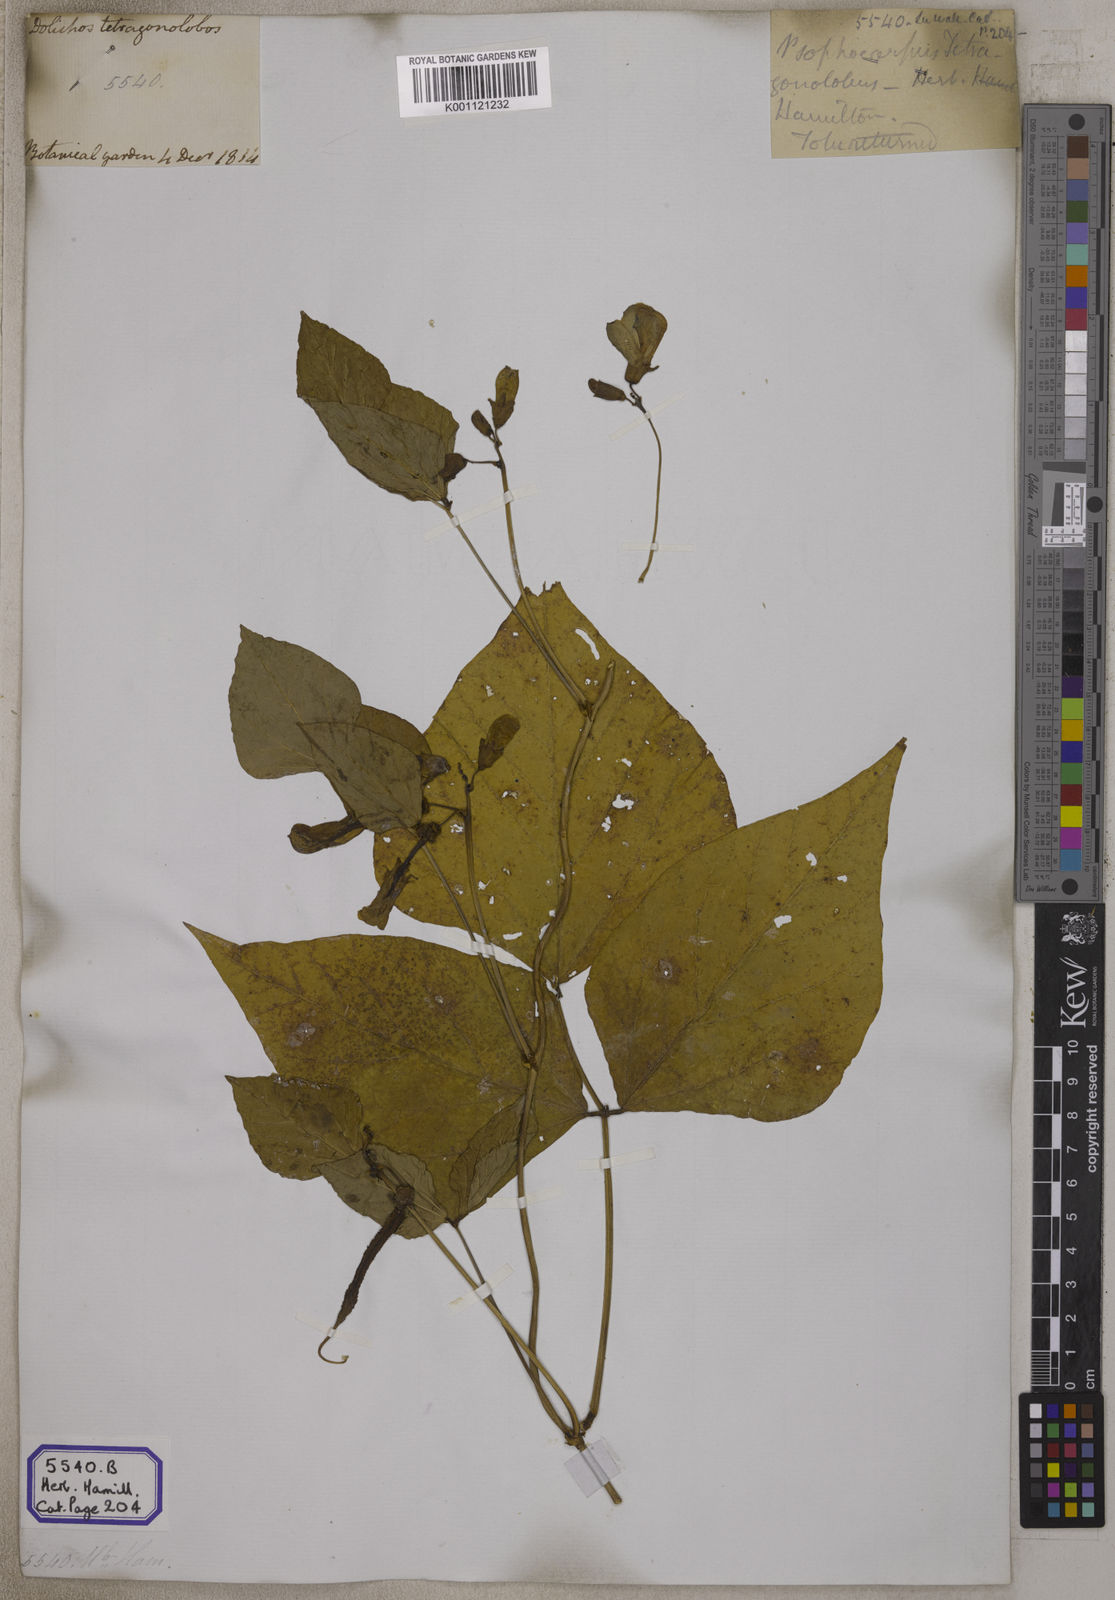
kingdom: Plantae
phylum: Tracheophyta
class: Magnoliopsida
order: Fabales
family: Fabaceae
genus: Psophocarpus
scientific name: Psophocarpus tetragonolobus
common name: Goa-bean
